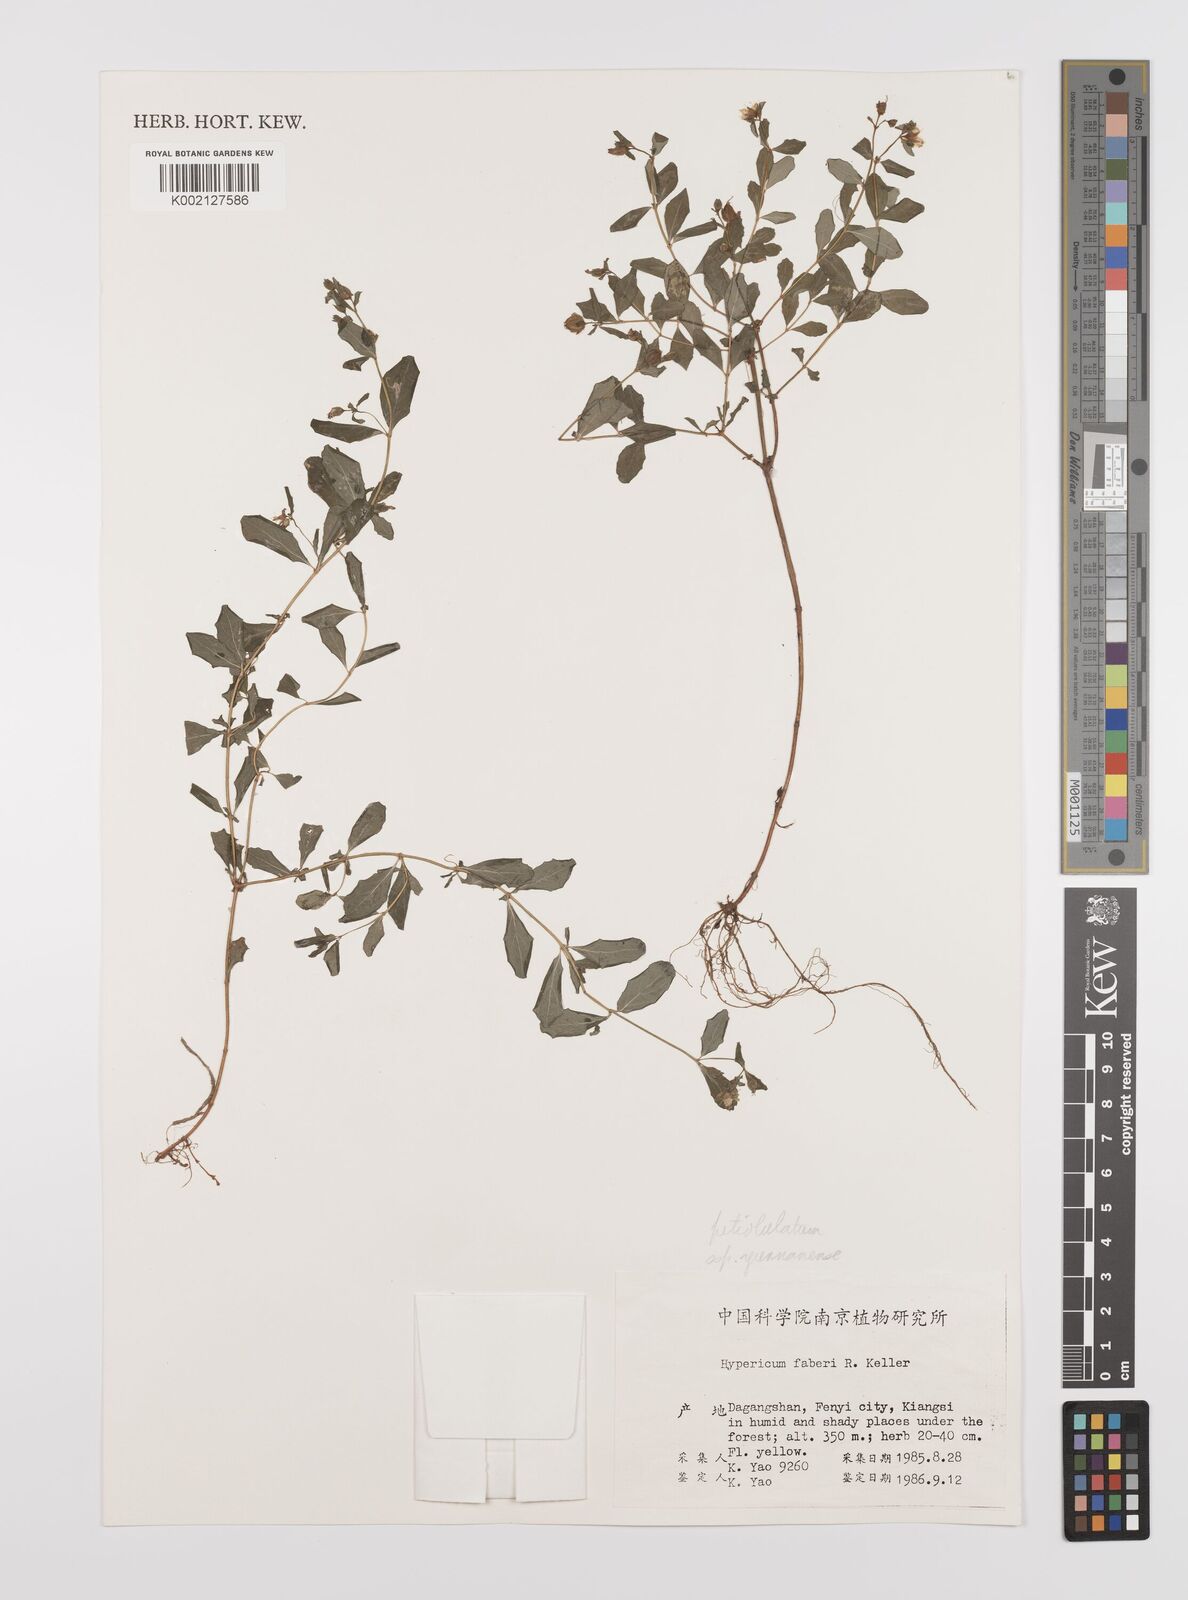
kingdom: Plantae
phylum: Tracheophyta
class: Magnoliopsida
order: Malpighiales
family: Hypericaceae
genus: Hypericum
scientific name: Hypericum petiolulatum
